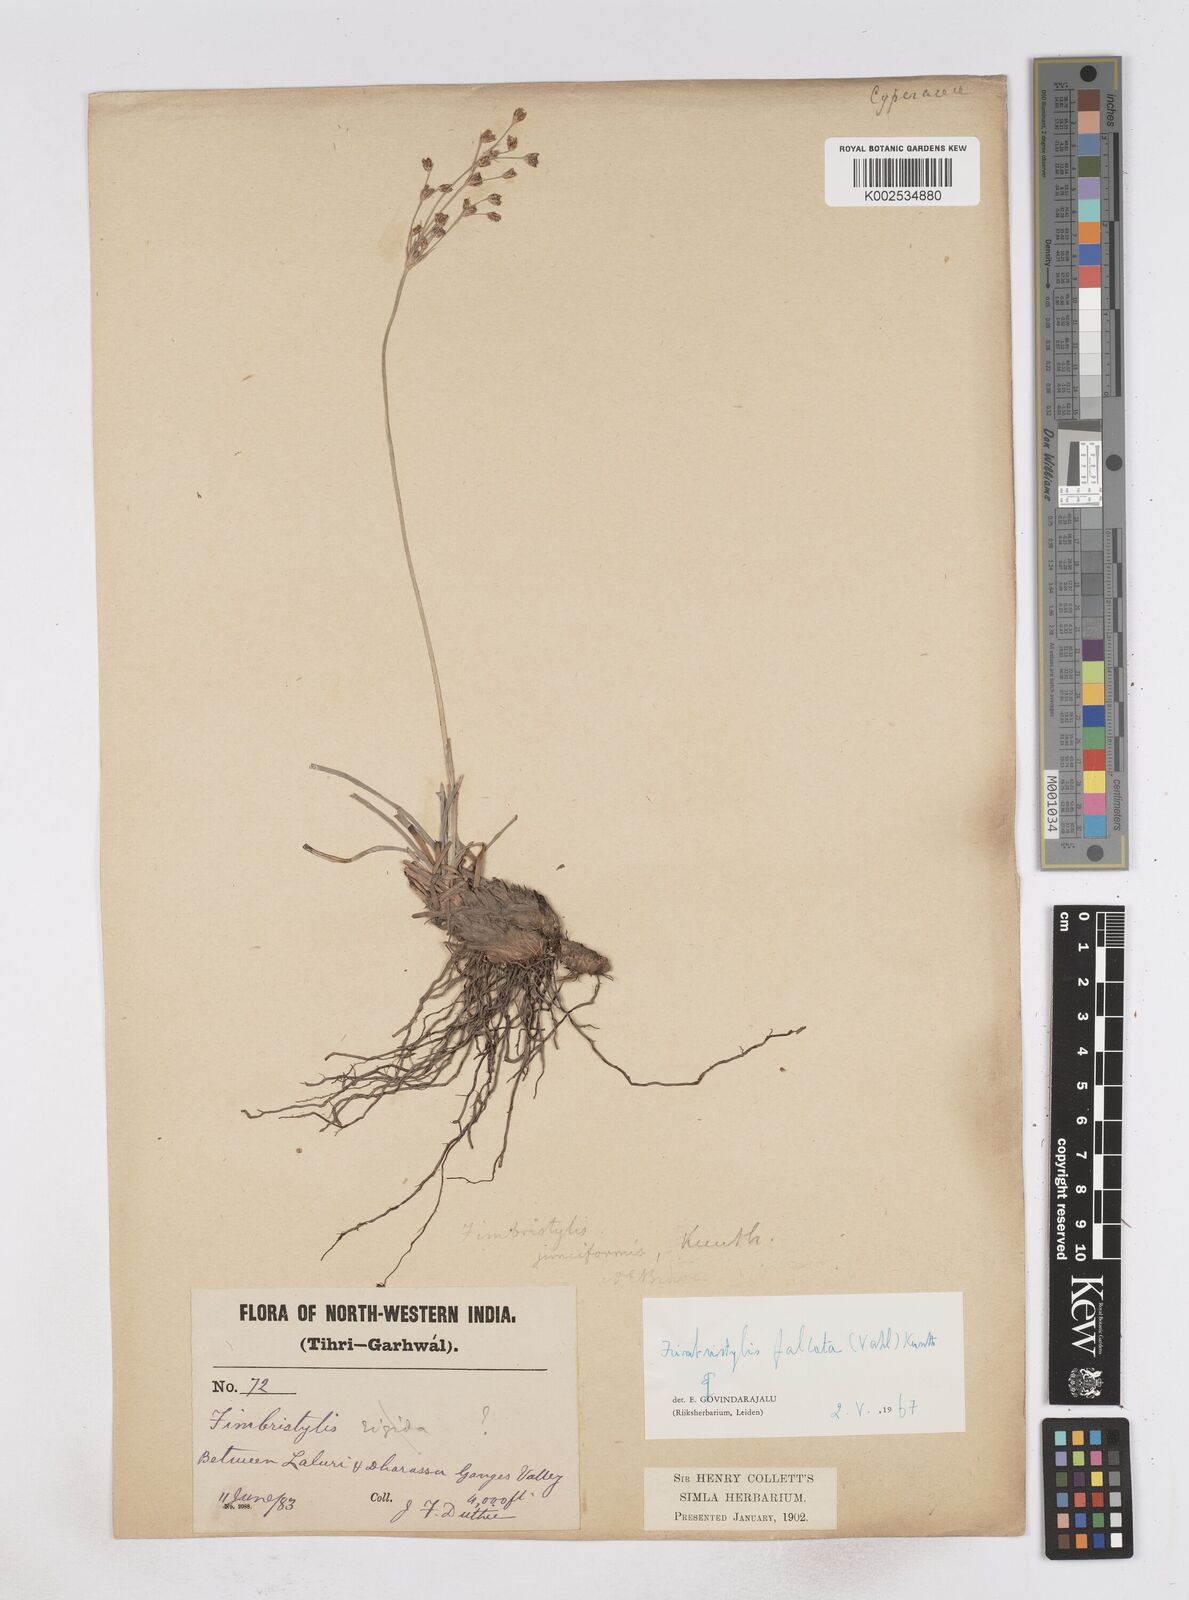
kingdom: Plantae
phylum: Tracheophyta
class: Liliopsida
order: Poales
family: Cyperaceae
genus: Fimbristylis
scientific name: Fimbristylis falcata
